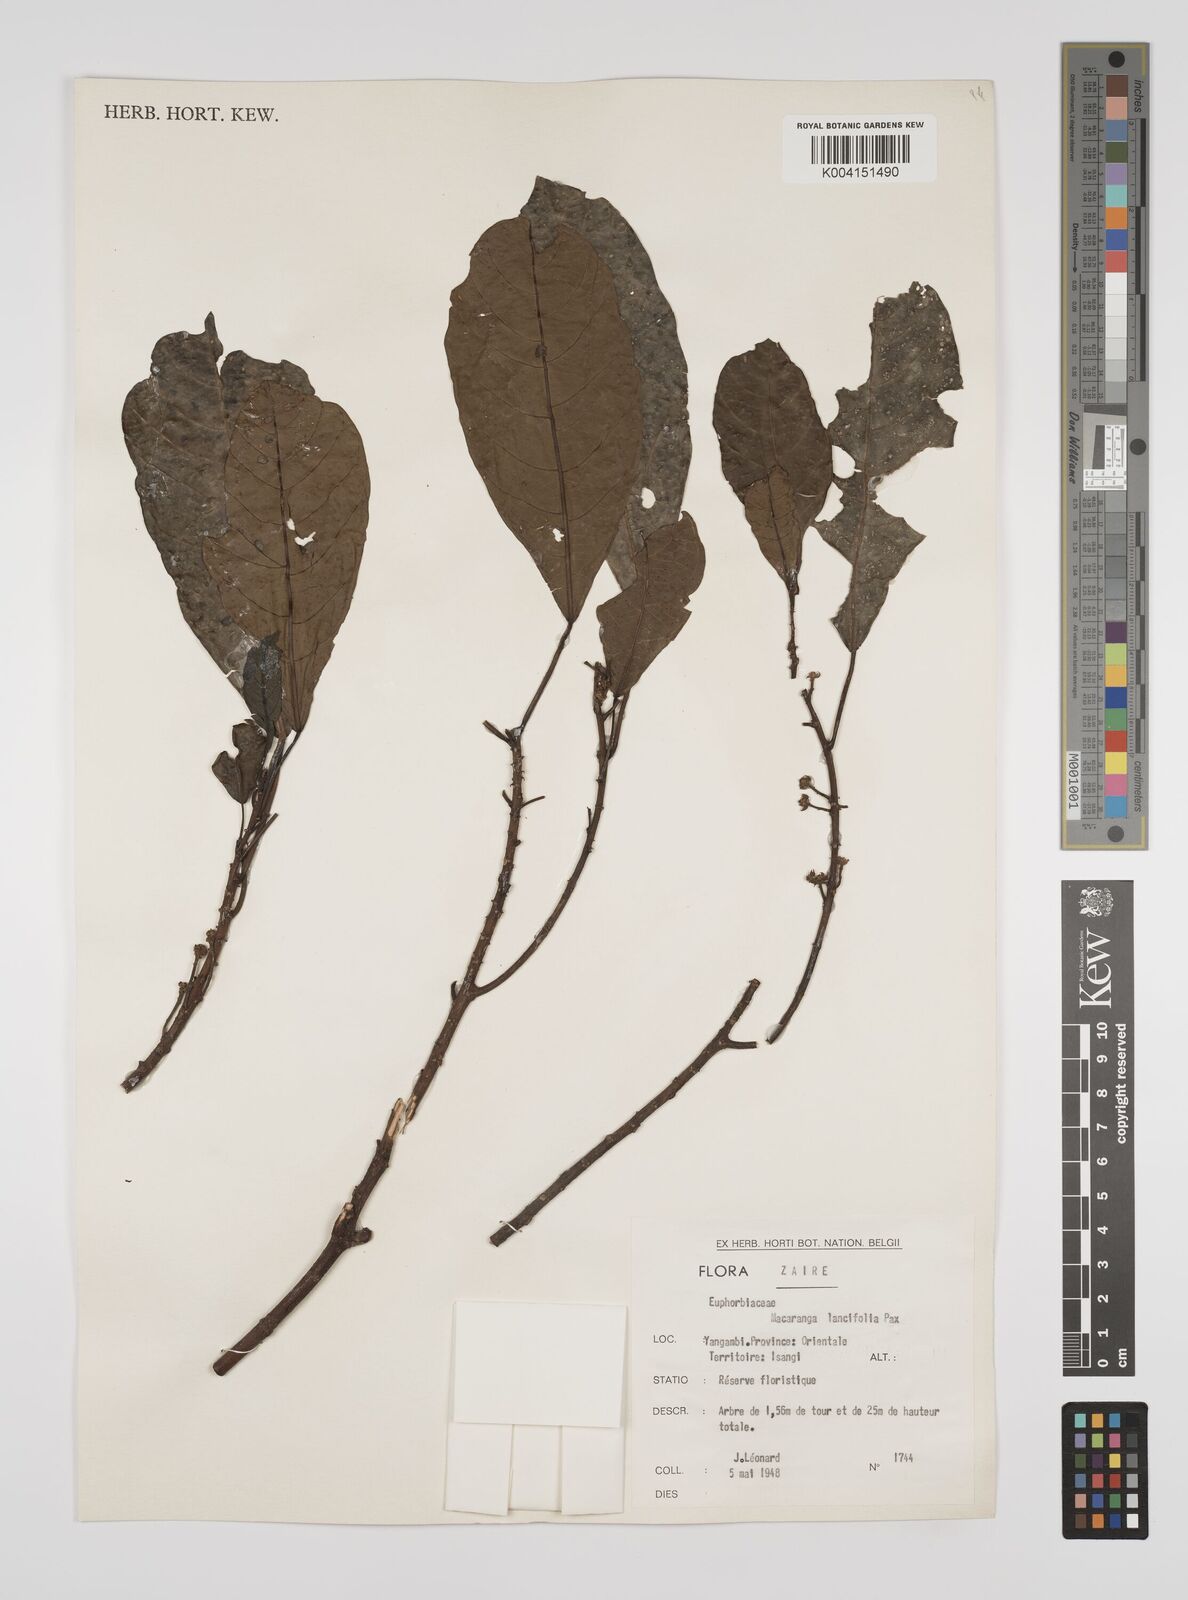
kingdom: Plantae
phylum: Tracheophyta
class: Magnoliopsida
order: Malpighiales
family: Euphorbiaceae
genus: Macaranga
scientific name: Macaranga barteri
